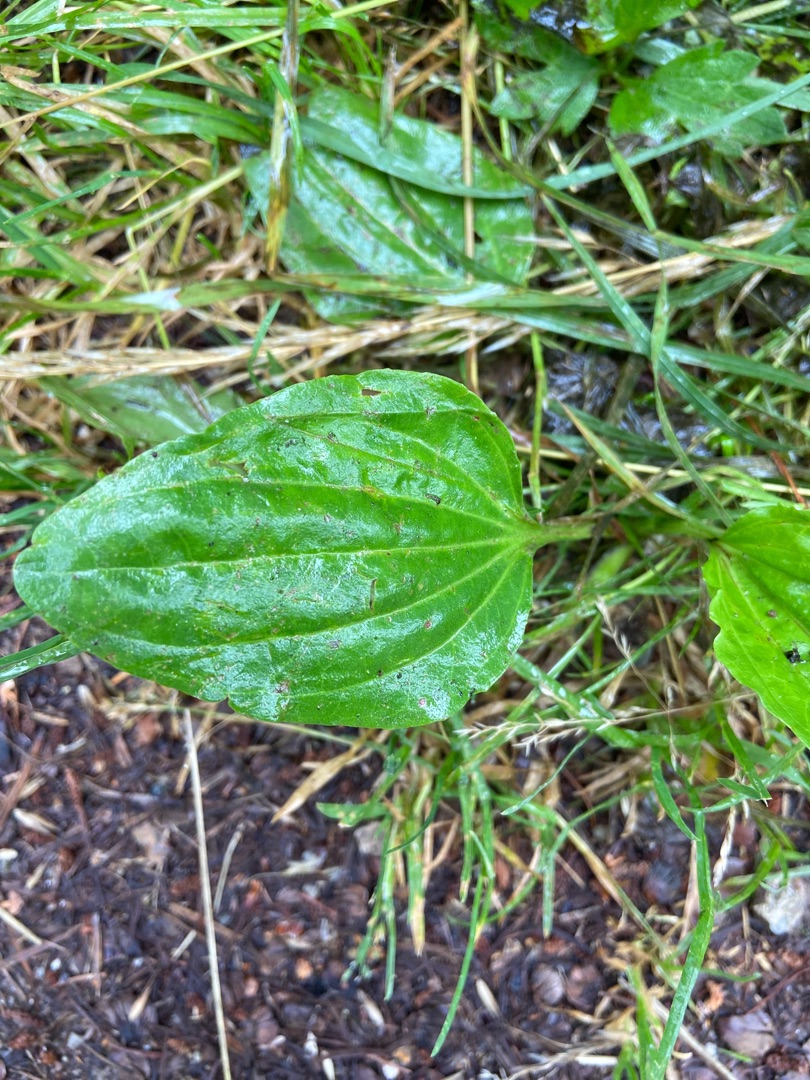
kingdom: Plantae
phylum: Tracheophyta
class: Magnoliopsida
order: Lamiales
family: Plantaginaceae
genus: Plantago
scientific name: Plantago major
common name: Glat vejbred
